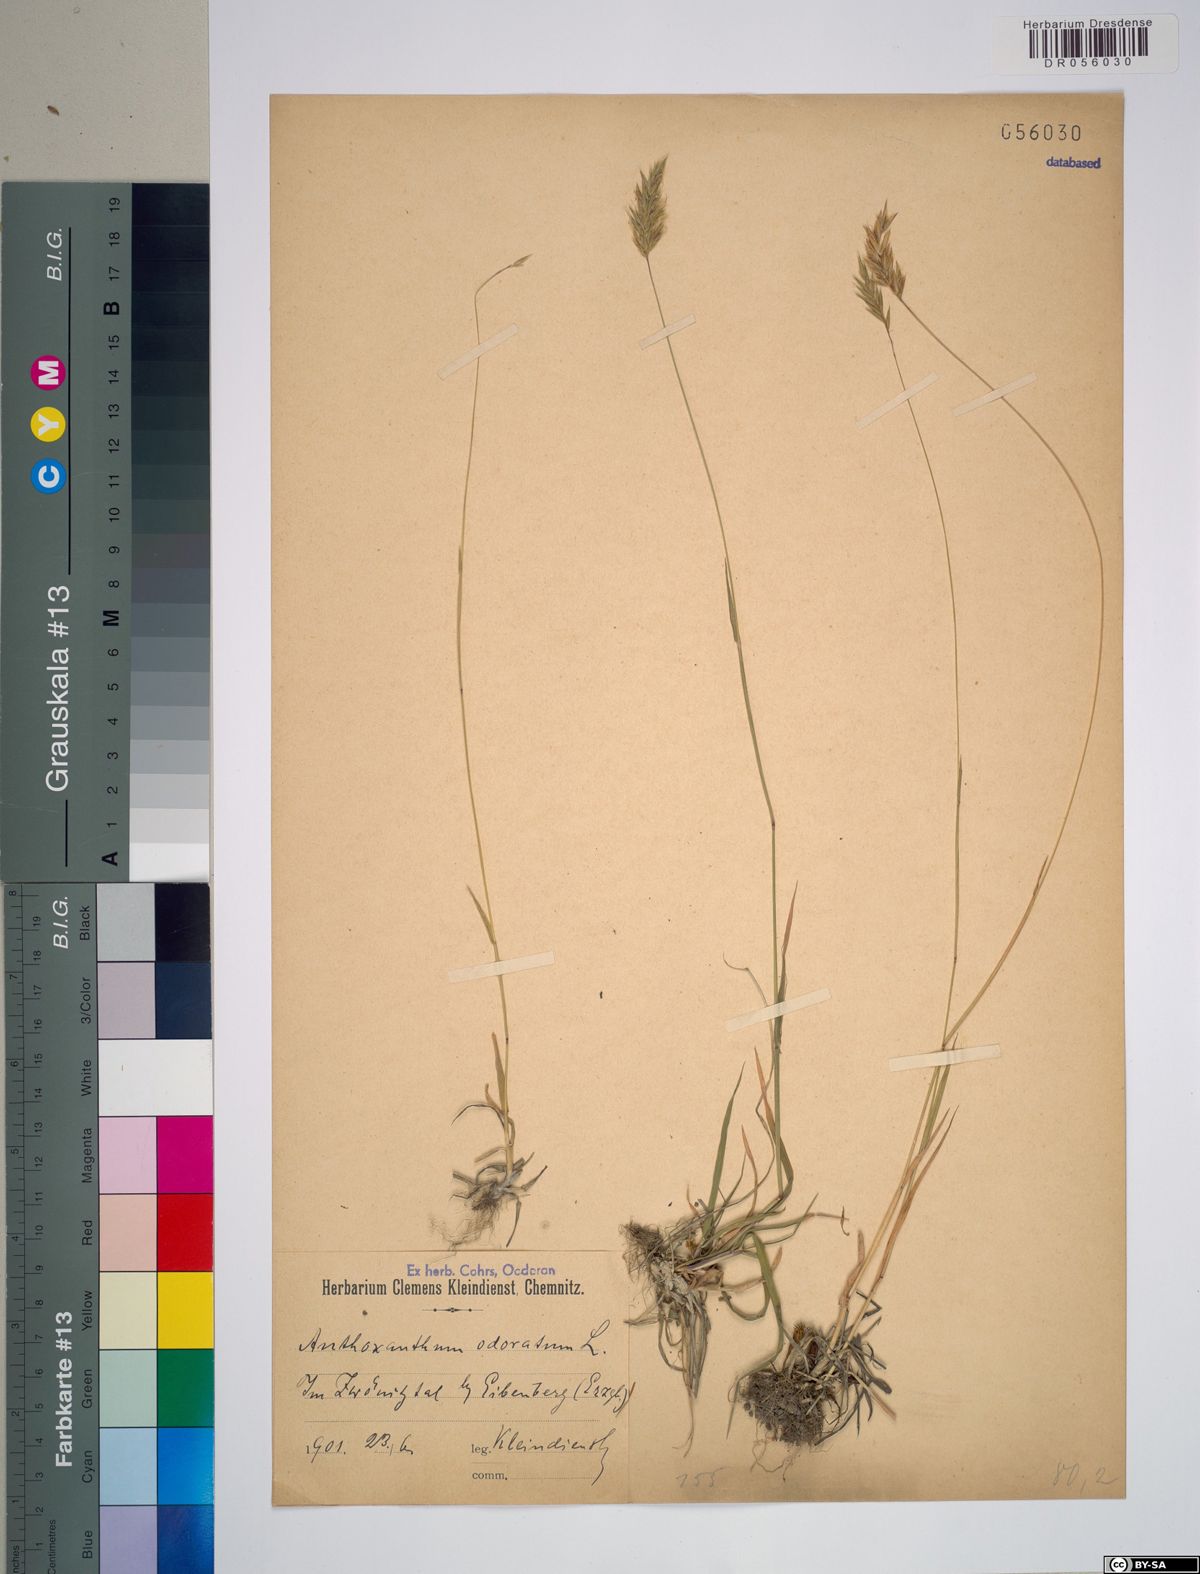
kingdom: Plantae
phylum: Tracheophyta
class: Liliopsida
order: Poales
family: Poaceae
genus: Anthoxanthum
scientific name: Anthoxanthum odoratum
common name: Sweet vernalgrass
